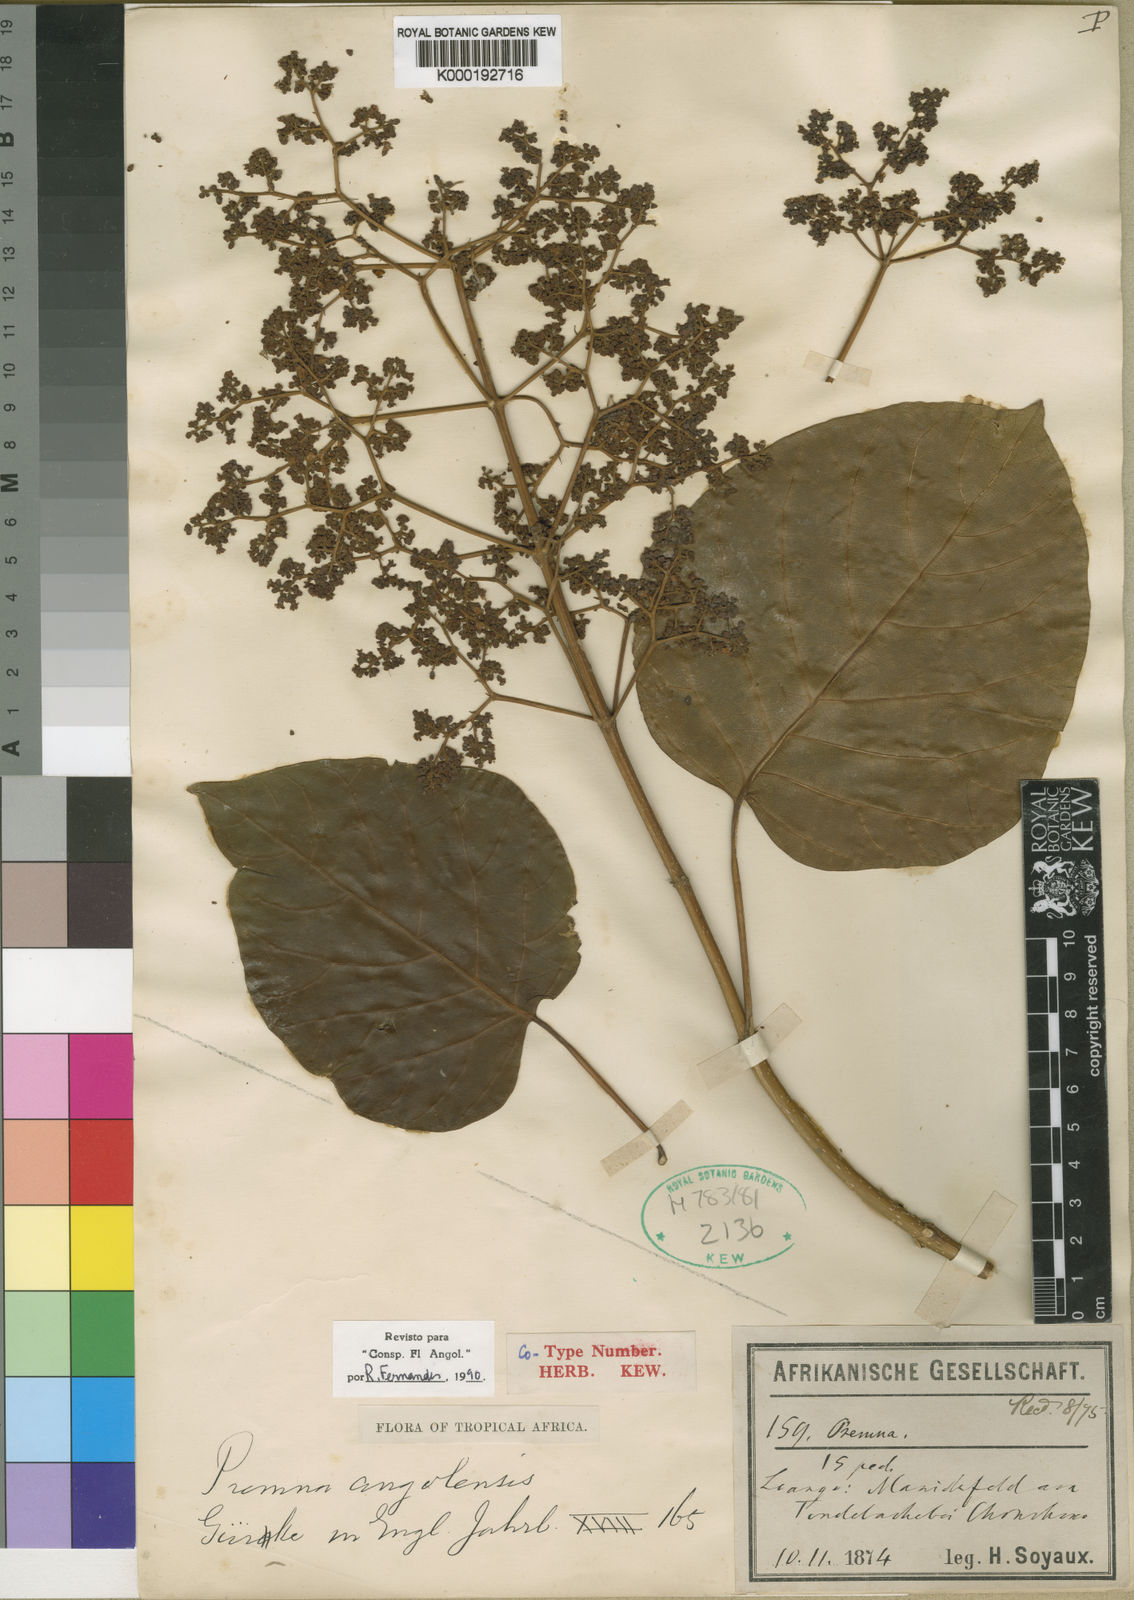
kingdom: Plantae
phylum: Tracheophyta
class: Magnoliopsida
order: Lamiales
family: Lamiaceae
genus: Premna
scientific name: Premna
